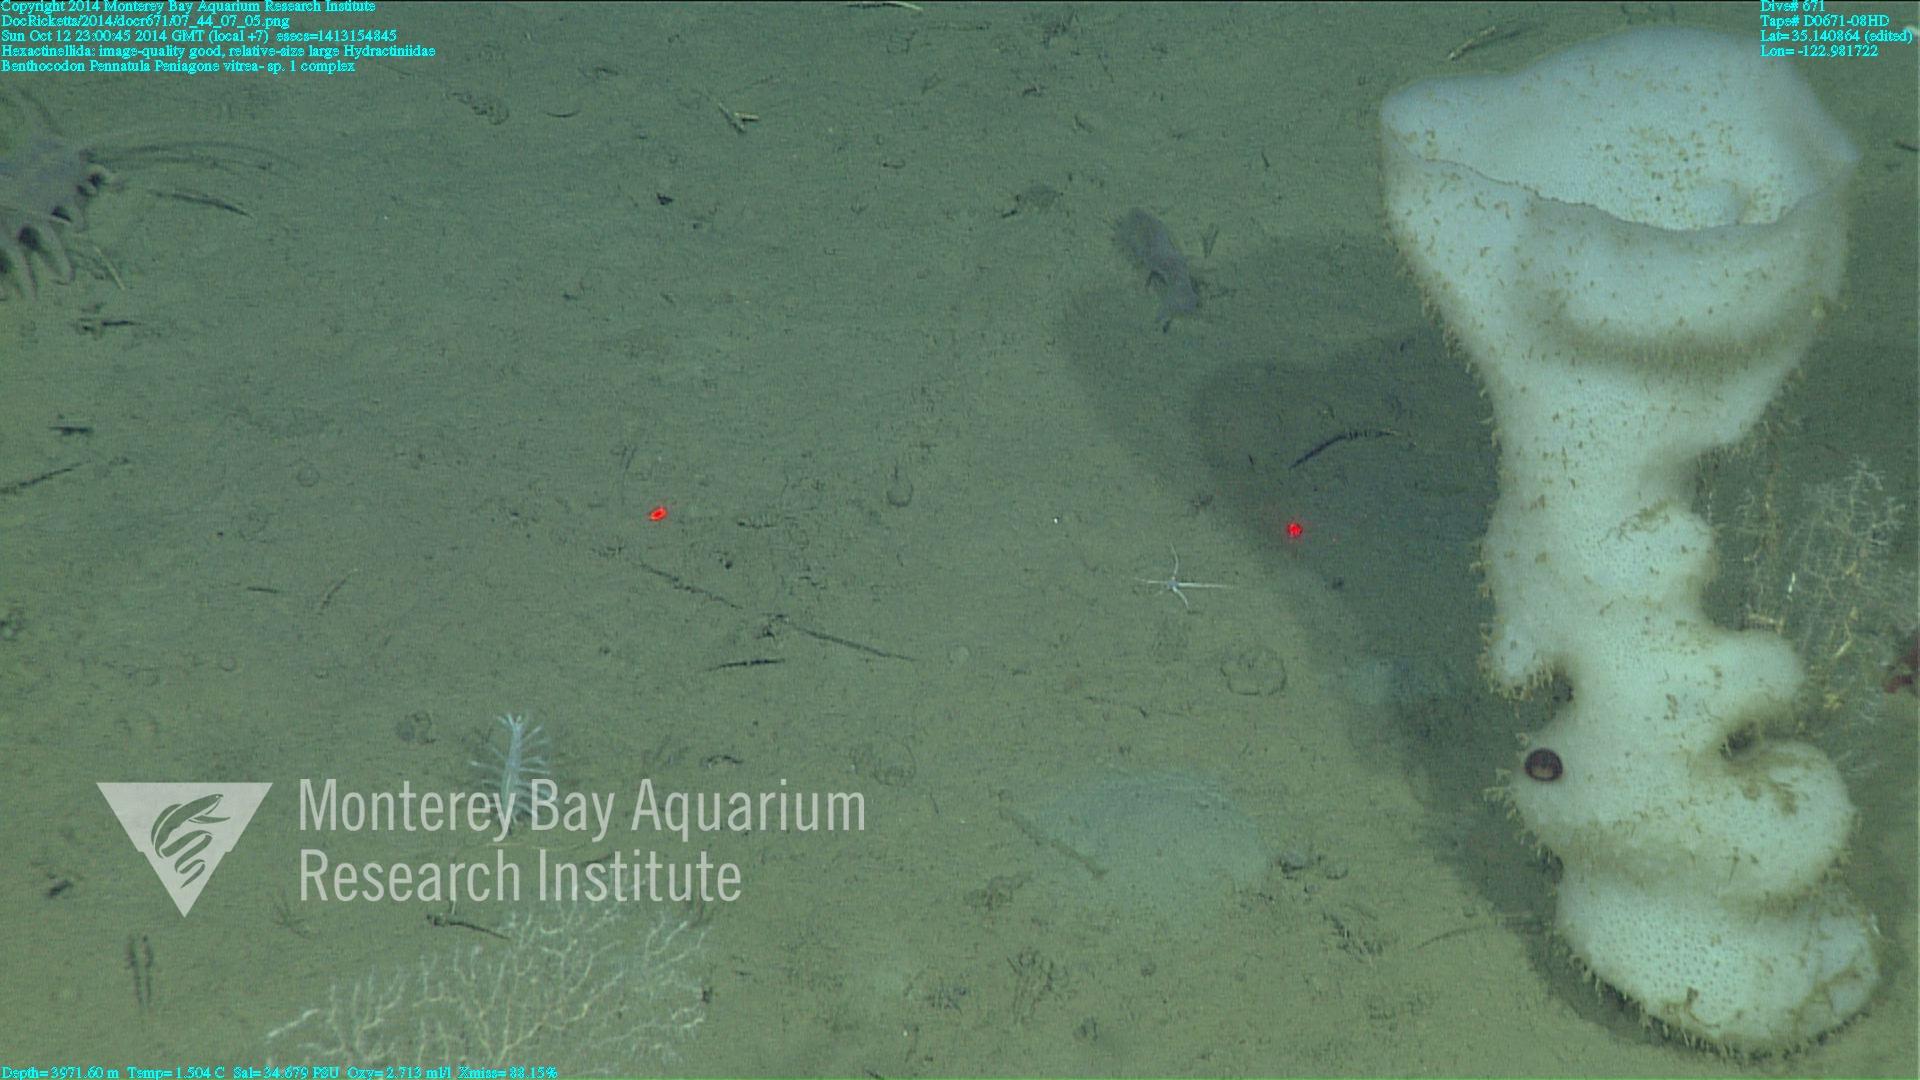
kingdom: Animalia
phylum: Cnidaria
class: Anthozoa
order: Scleralcyonacea
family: Pennatulidae
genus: Pennatula
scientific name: Pennatula
